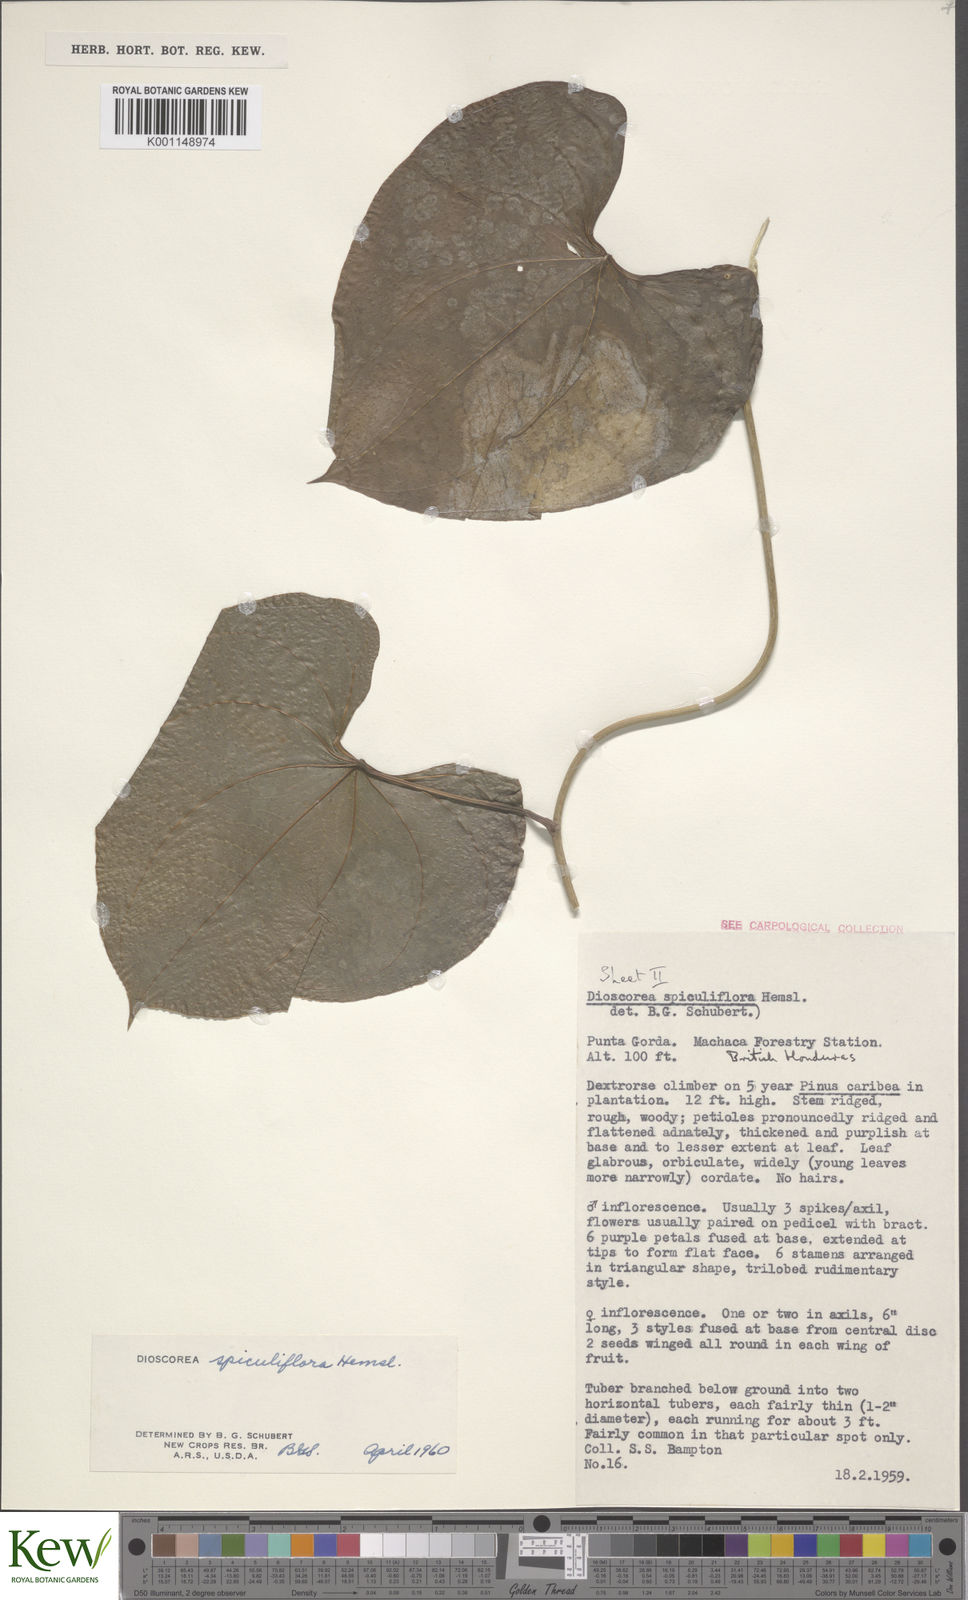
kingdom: Plantae
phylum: Tracheophyta
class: Liliopsida
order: Dioscoreales
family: Dioscoreaceae
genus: Dioscorea
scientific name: Dioscorea spiculiflora
